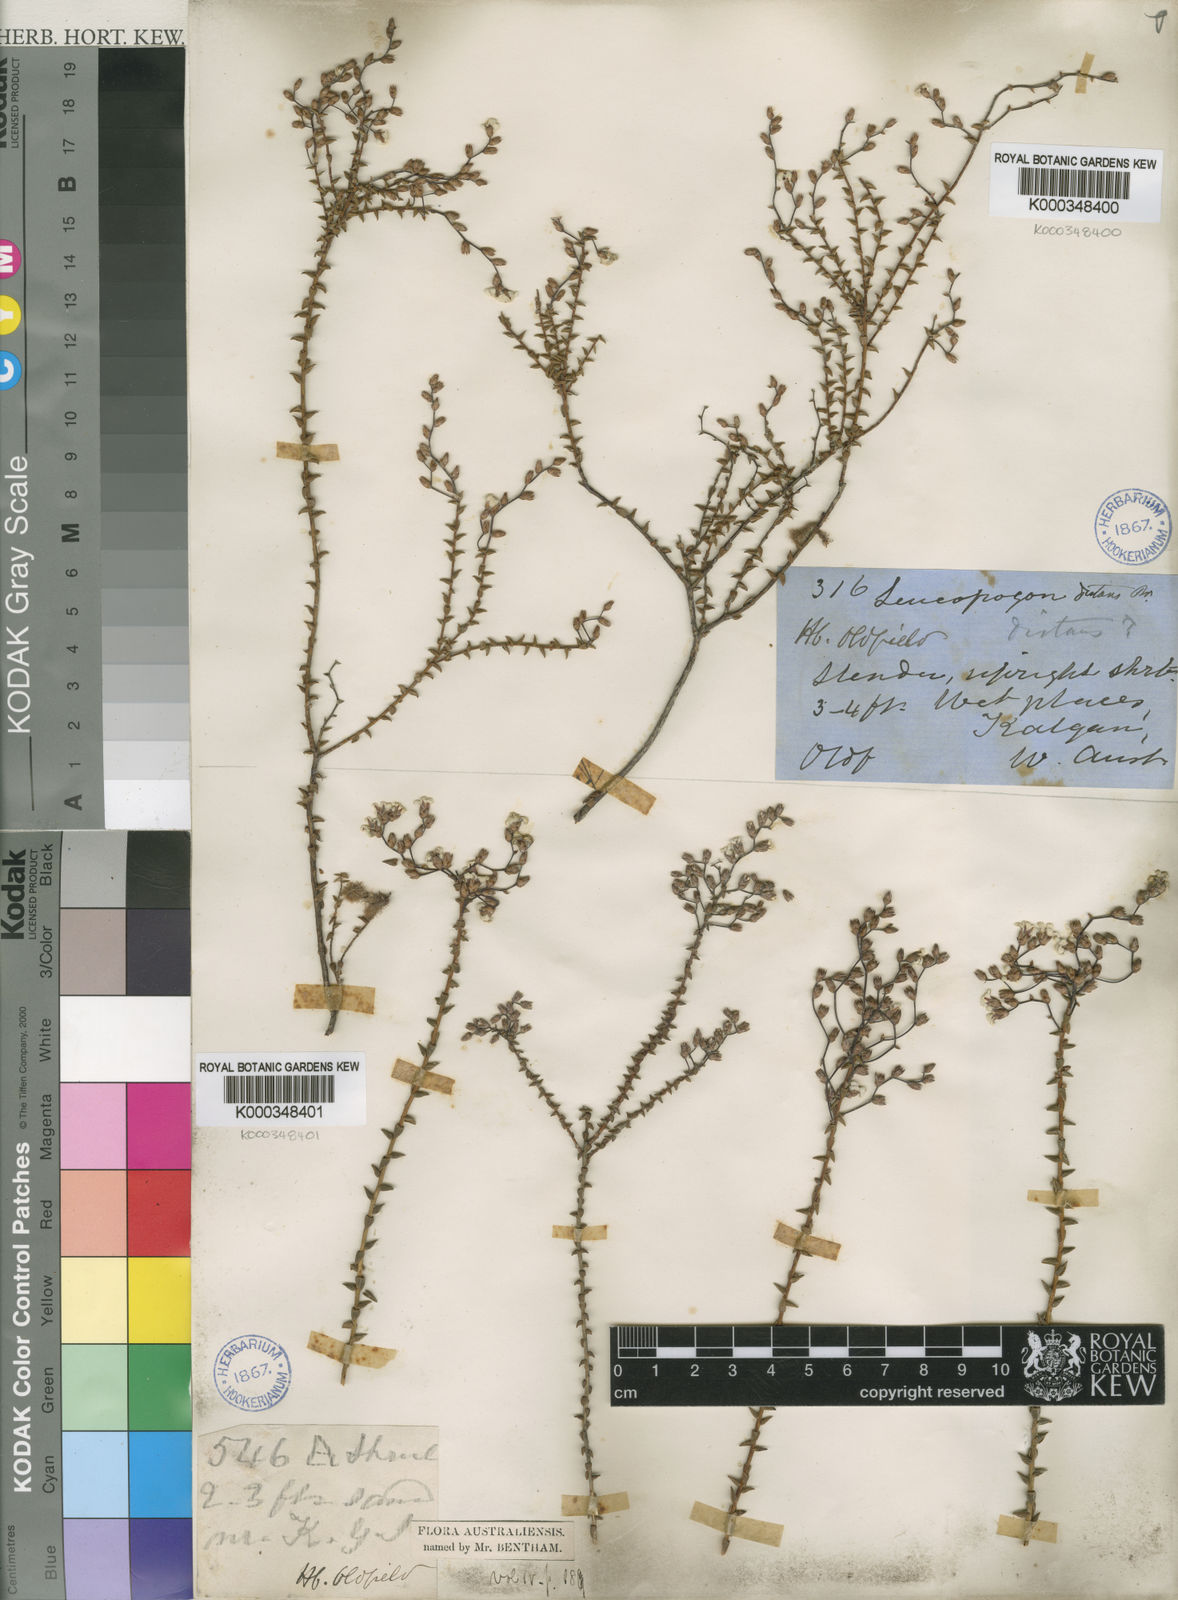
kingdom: Plantae
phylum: Tracheophyta
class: Magnoliopsida
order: Ericales
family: Ericaceae
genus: Leucopogon
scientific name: Leucopogon distans
